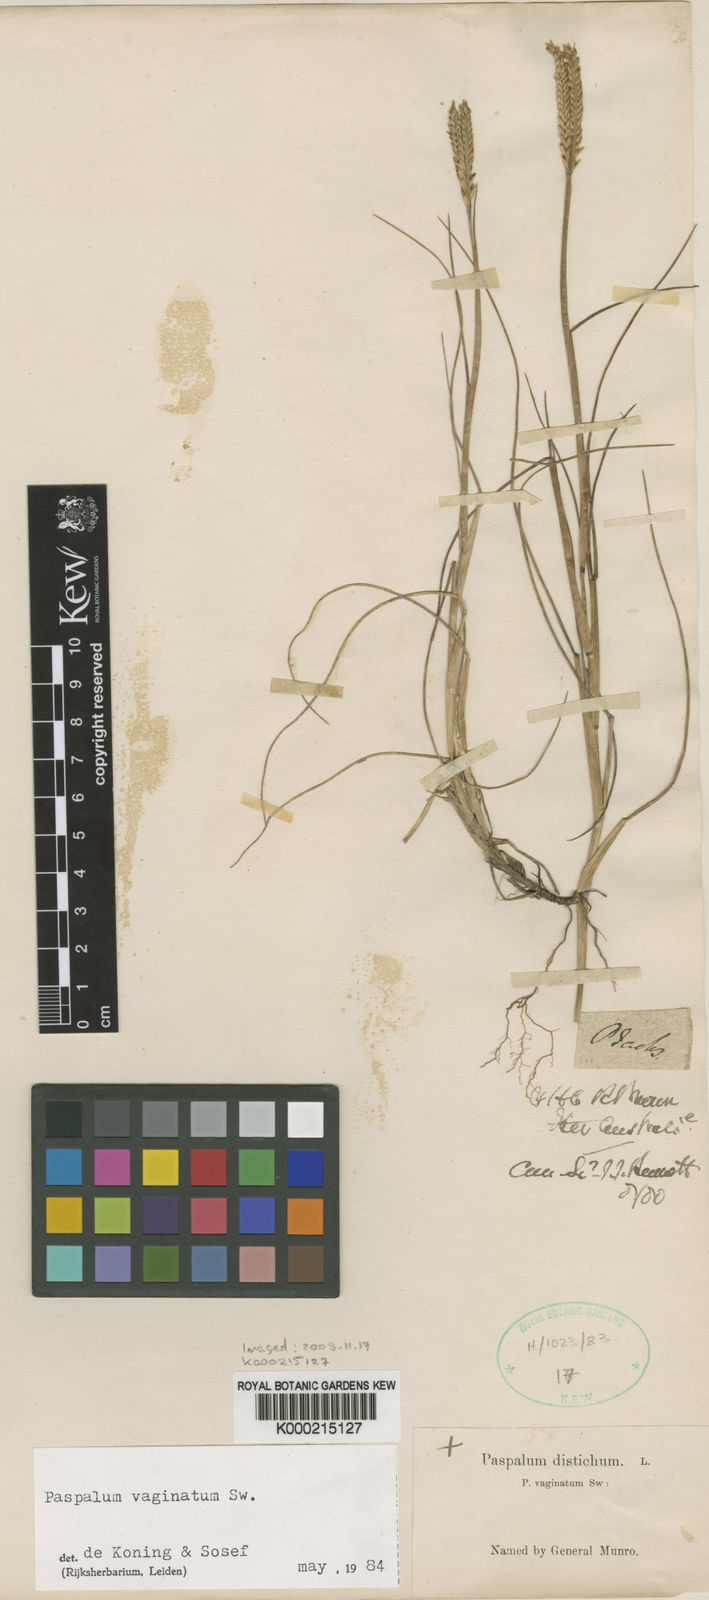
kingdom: Plantae
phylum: Tracheophyta
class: Liliopsida
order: Poales
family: Poaceae
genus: Paspalum
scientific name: Paspalum vaginatum
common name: Seashore paspalum
